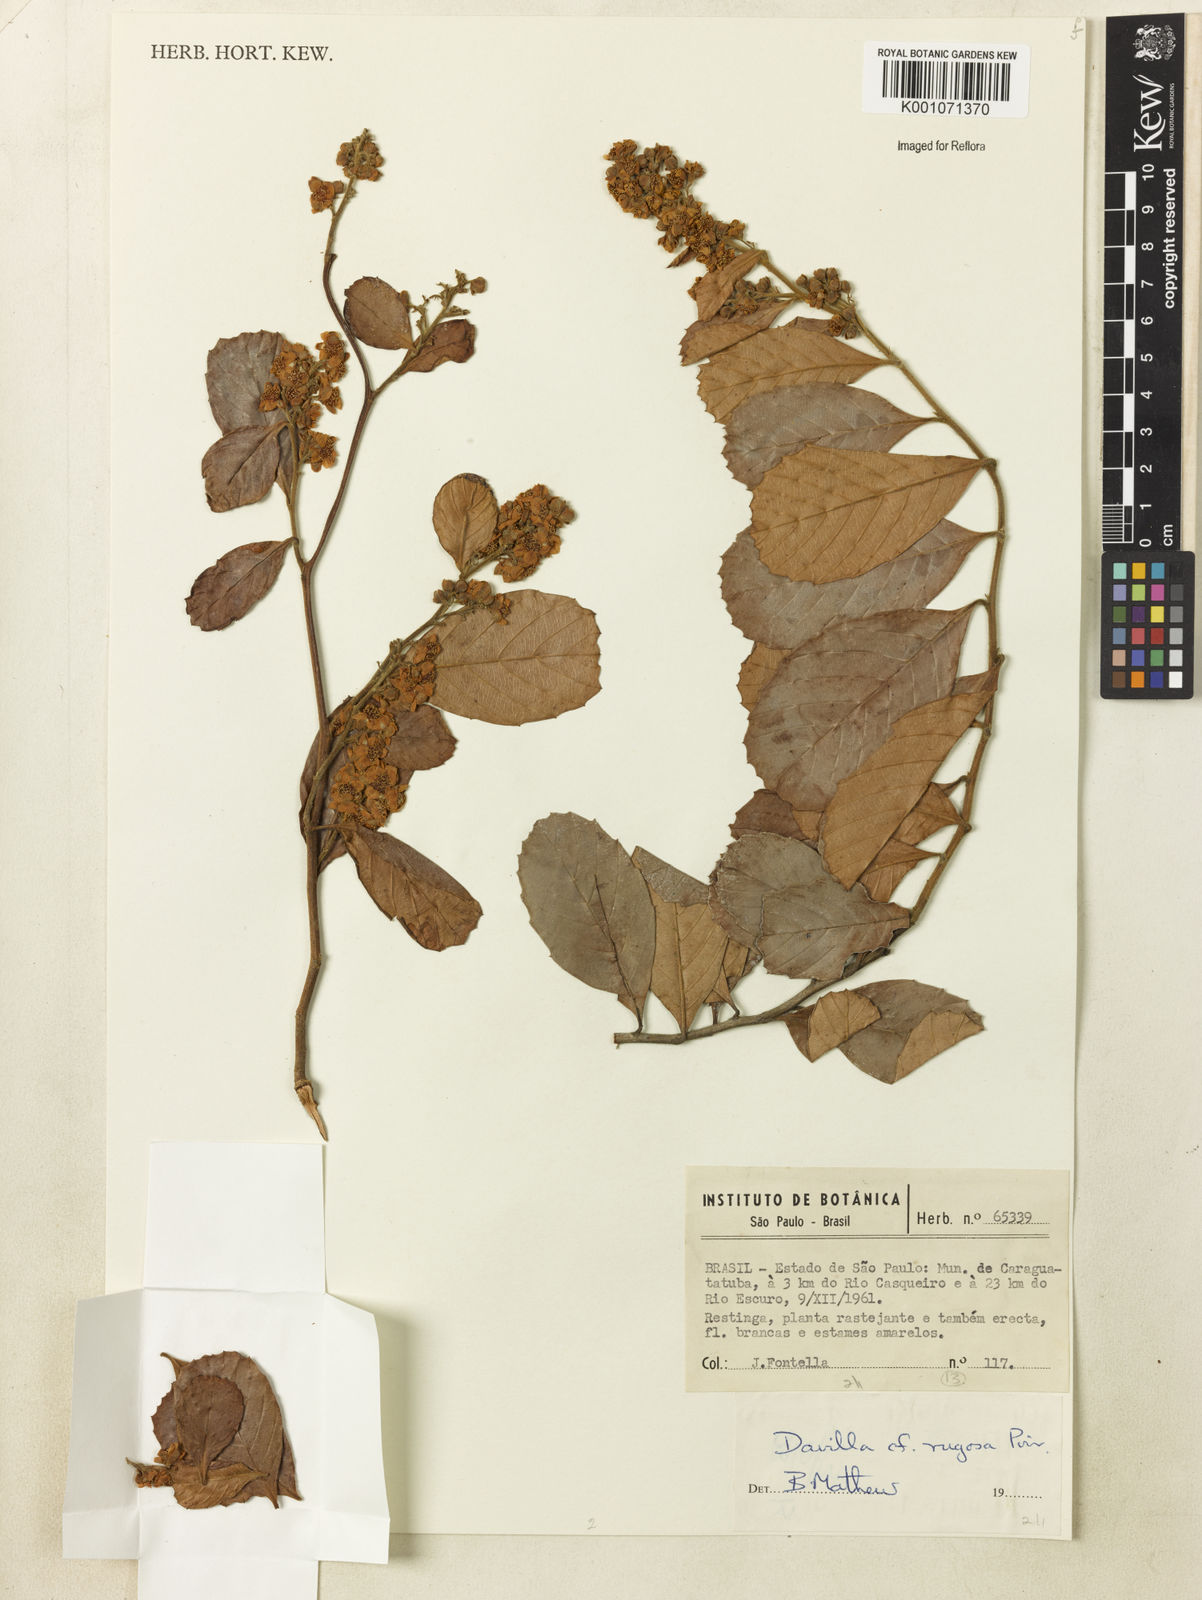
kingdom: Plantae
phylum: Tracheophyta
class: Magnoliopsida
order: Dilleniales
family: Dilleniaceae
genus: Davilla
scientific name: Davilla rugosa
